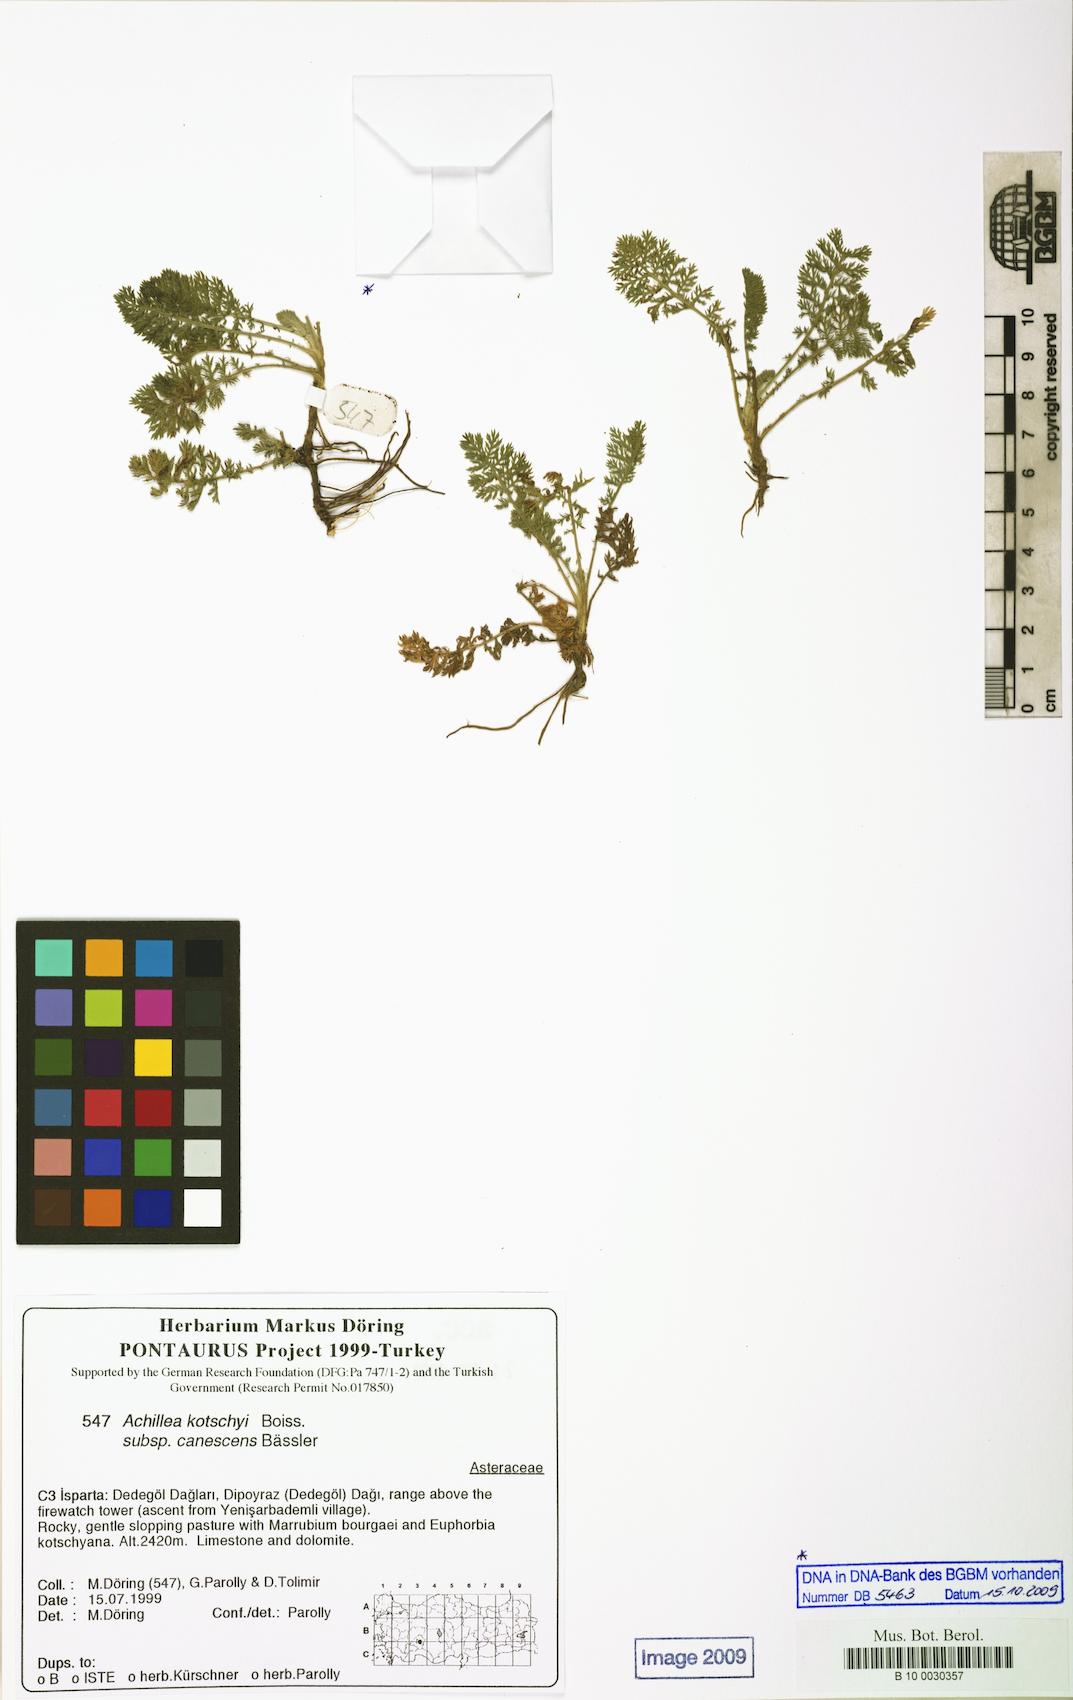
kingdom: Plantae
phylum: Tracheophyta
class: Magnoliopsida
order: Asterales
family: Asteraceae
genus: Achillea
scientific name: Achillea kotschyi
